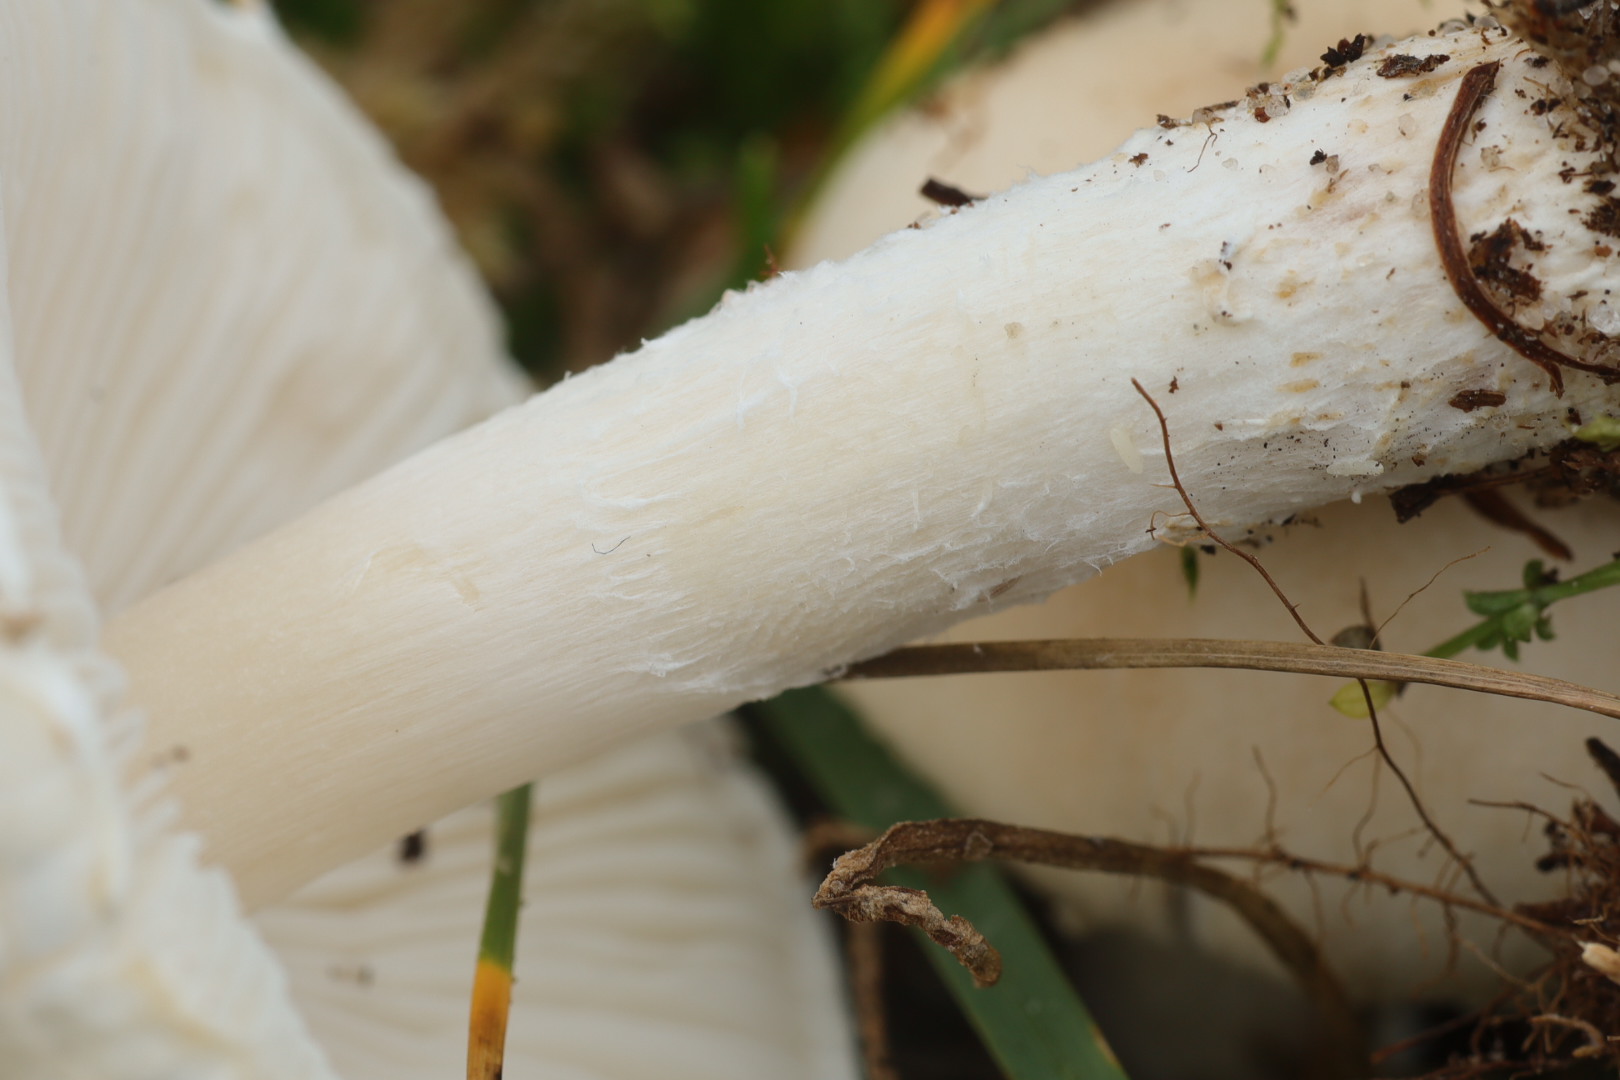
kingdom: Fungi
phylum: Basidiomycota
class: Agaricomycetes
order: Agaricales
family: Agaricaceae
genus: Lepiota
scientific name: Lepiota erminea
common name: hvid parasolhat
